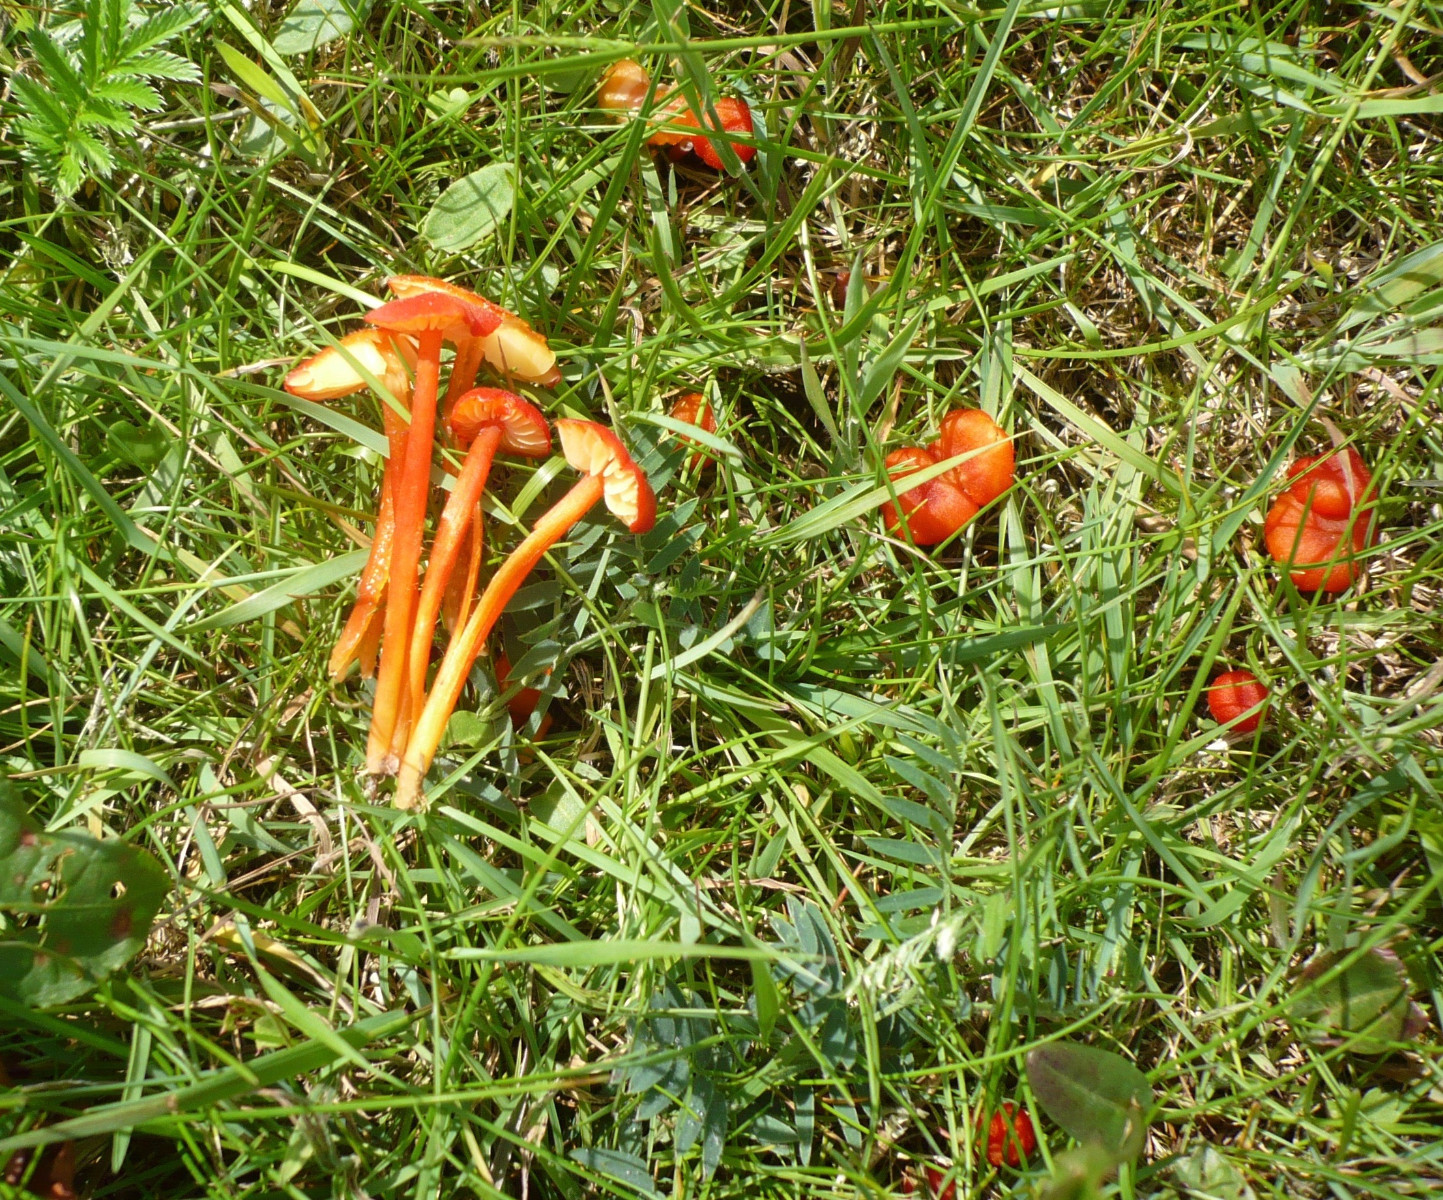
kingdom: Fungi
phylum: Basidiomycota
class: Agaricomycetes
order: Agaricales
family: Hygrophoraceae
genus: Hygrocybe
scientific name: Hygrocybe helobia
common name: hvidløgs-vokshat
